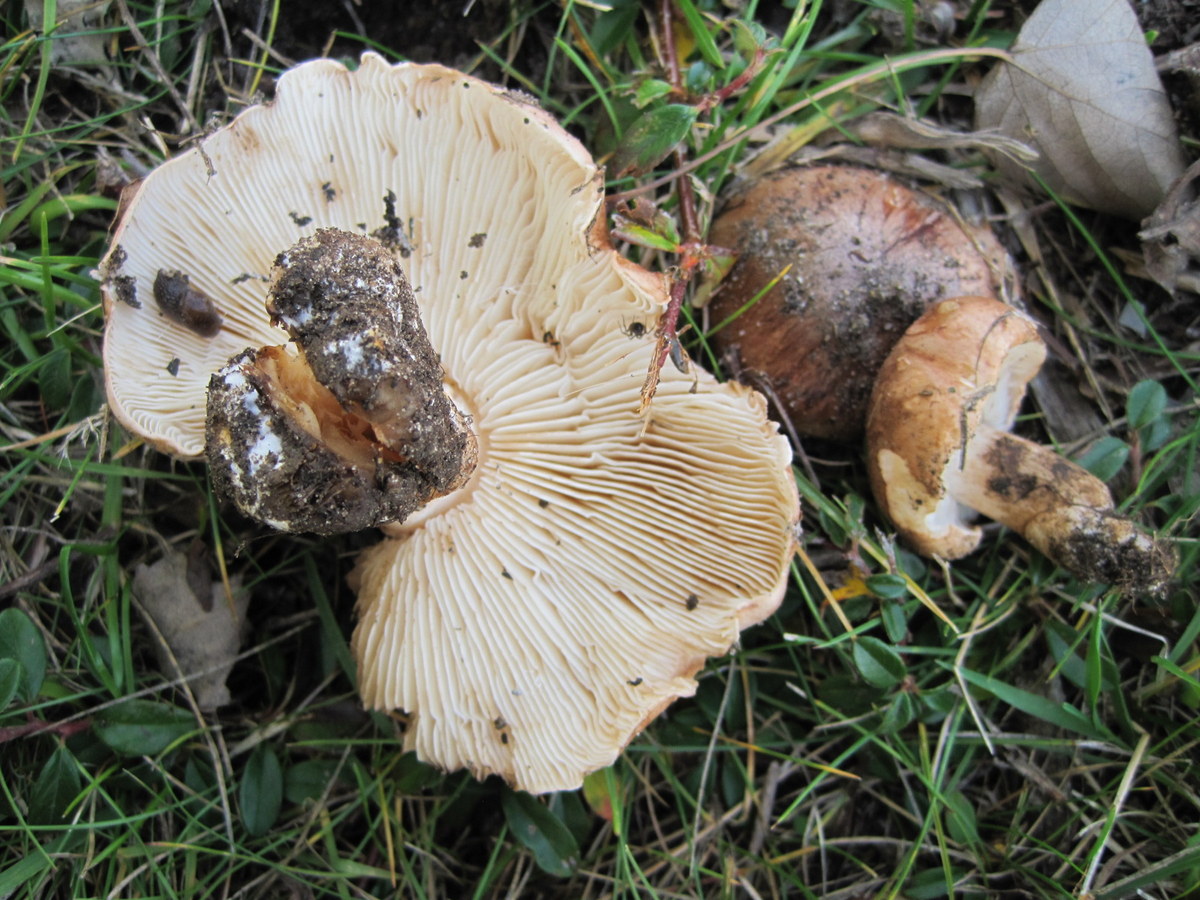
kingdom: Fungi
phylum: Basidiomycota
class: Agaricomycetes
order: Agaricales
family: Tricholomataceae
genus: Tricholoma
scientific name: Tricholoma populinum
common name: poppel-ridderhat
